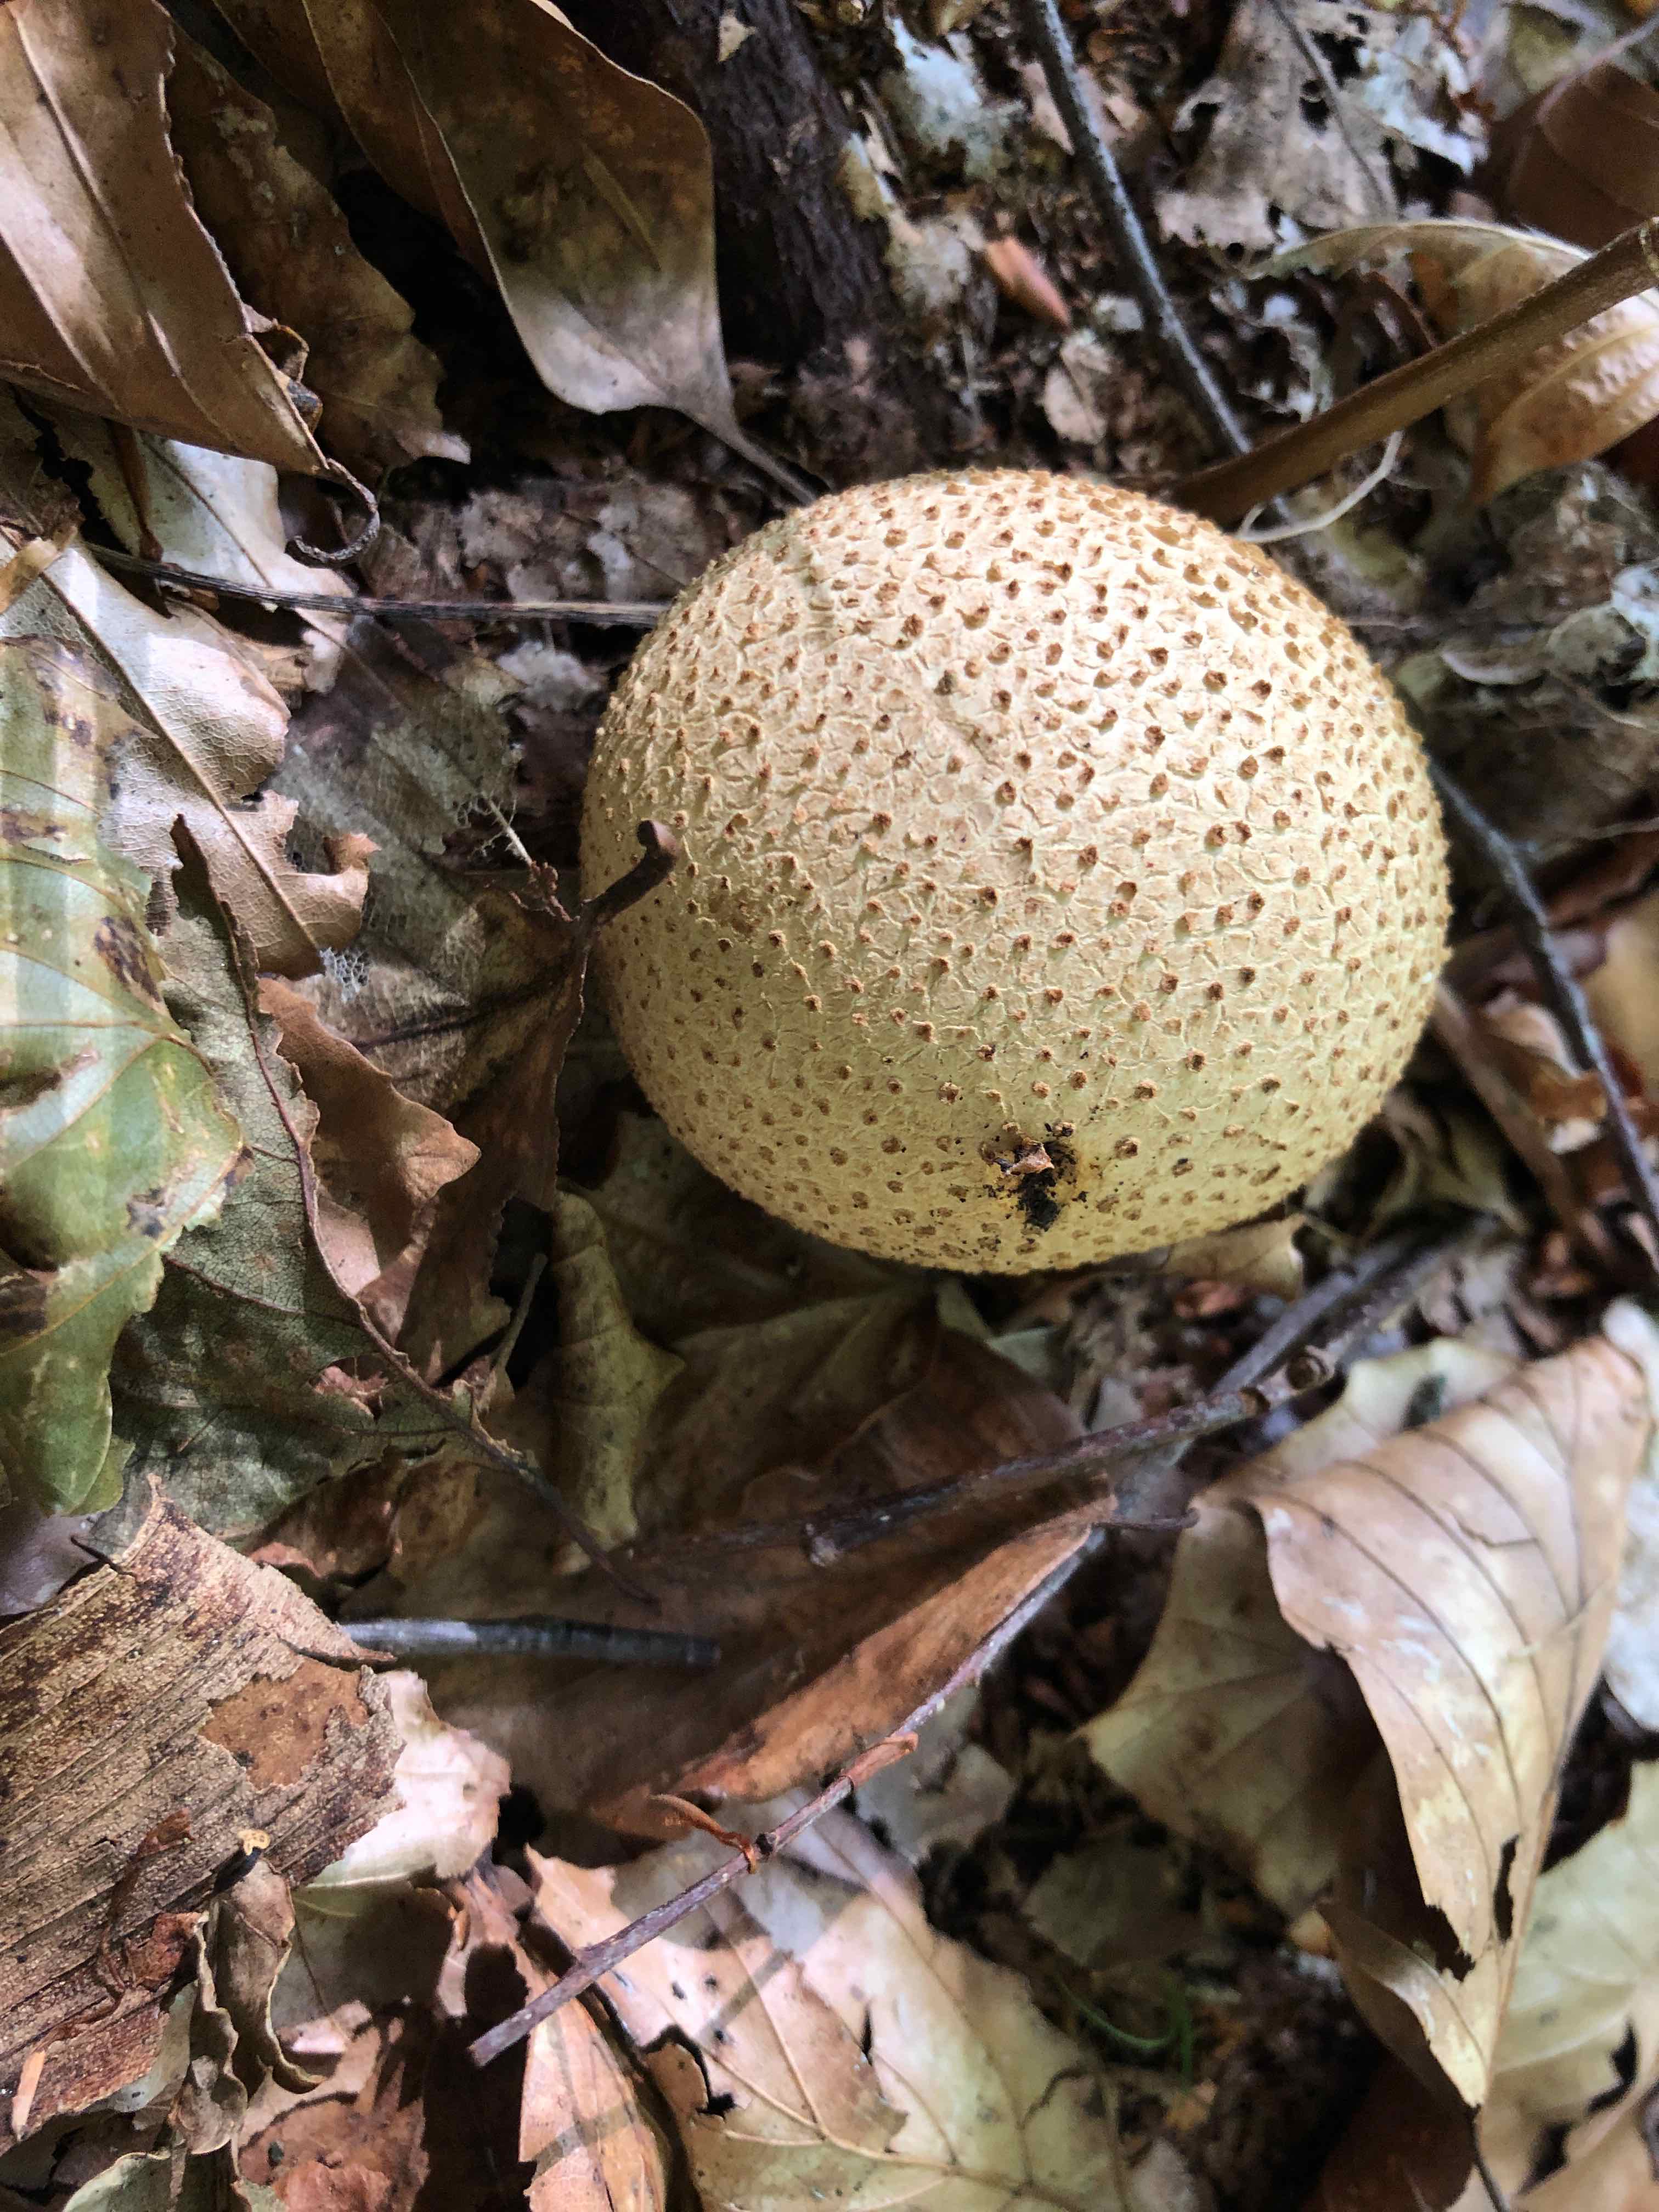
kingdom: Fungi
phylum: Basidiomycota
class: Agaricomycetes
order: Boletales
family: Sclerodermataceae
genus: Scleroderma
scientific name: Scleroderma citrinum
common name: almindelig bruskbold
